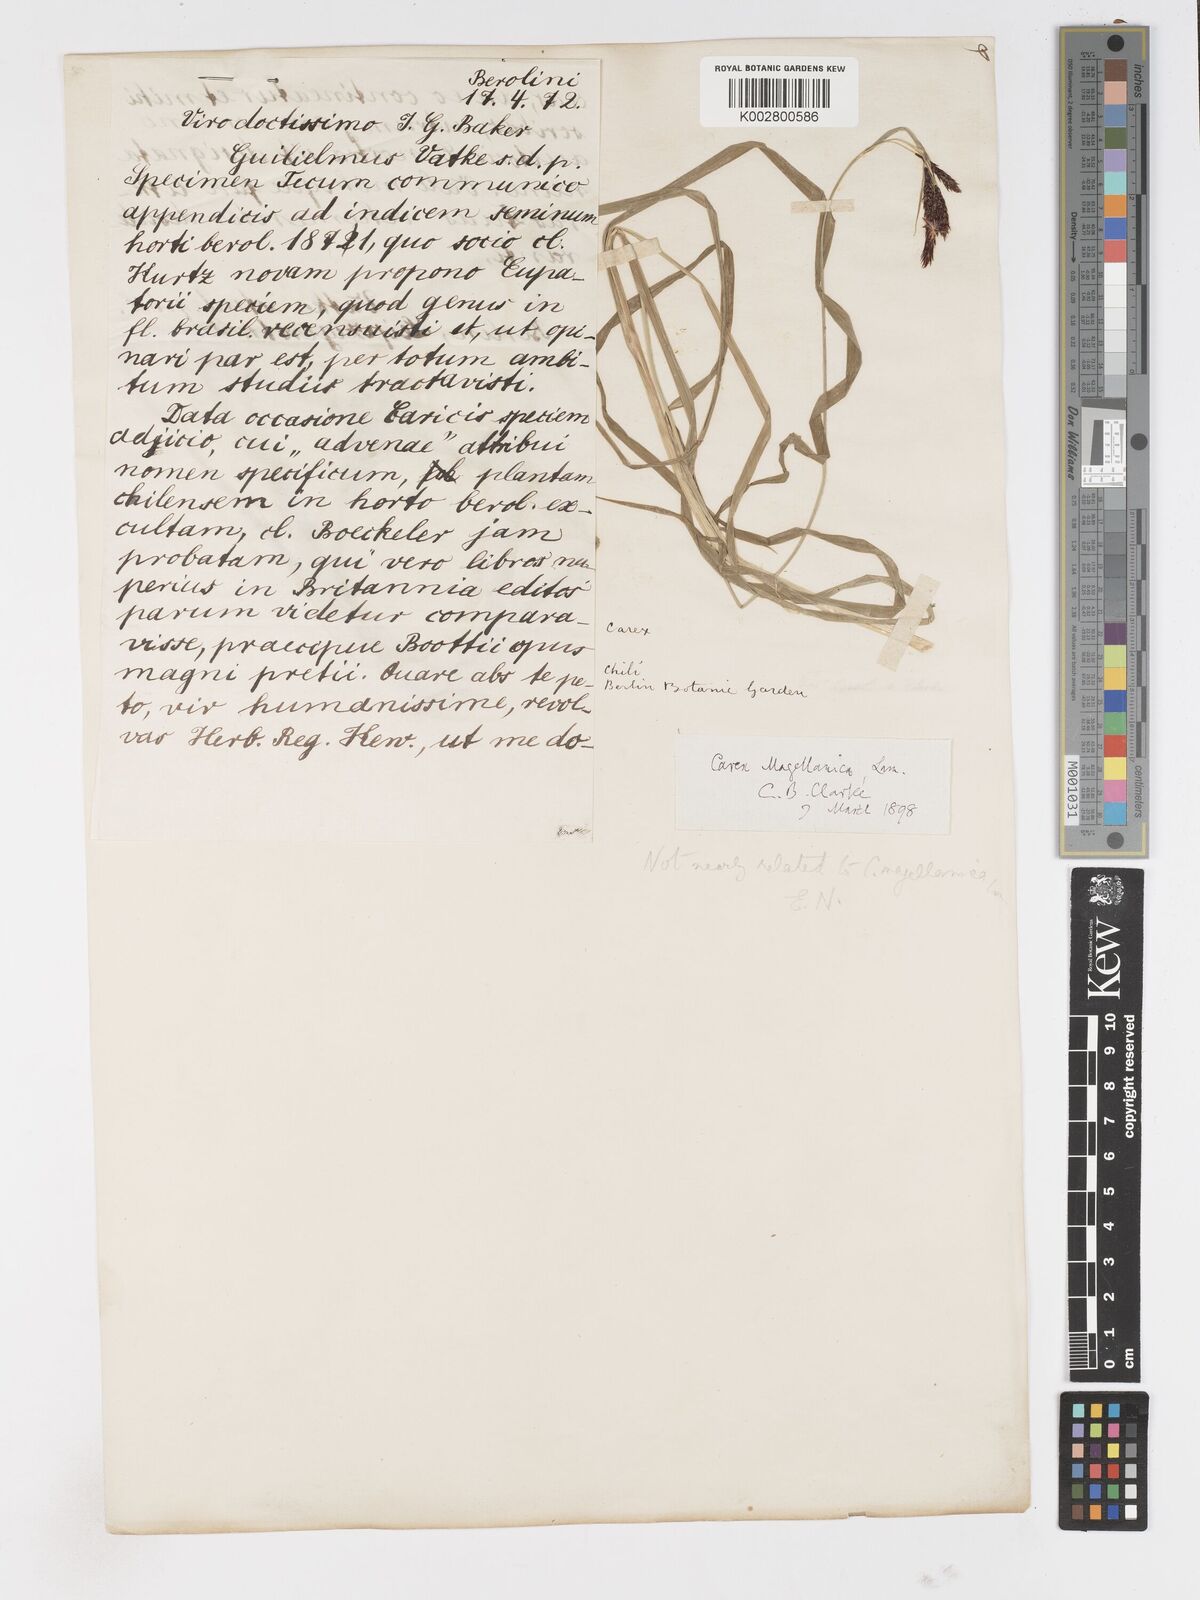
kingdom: Plantae
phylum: Tracheophyta
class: Liliopsida
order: Poales
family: Cyperaceae
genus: Carex
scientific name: Carex magellanica
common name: Bog sedge
